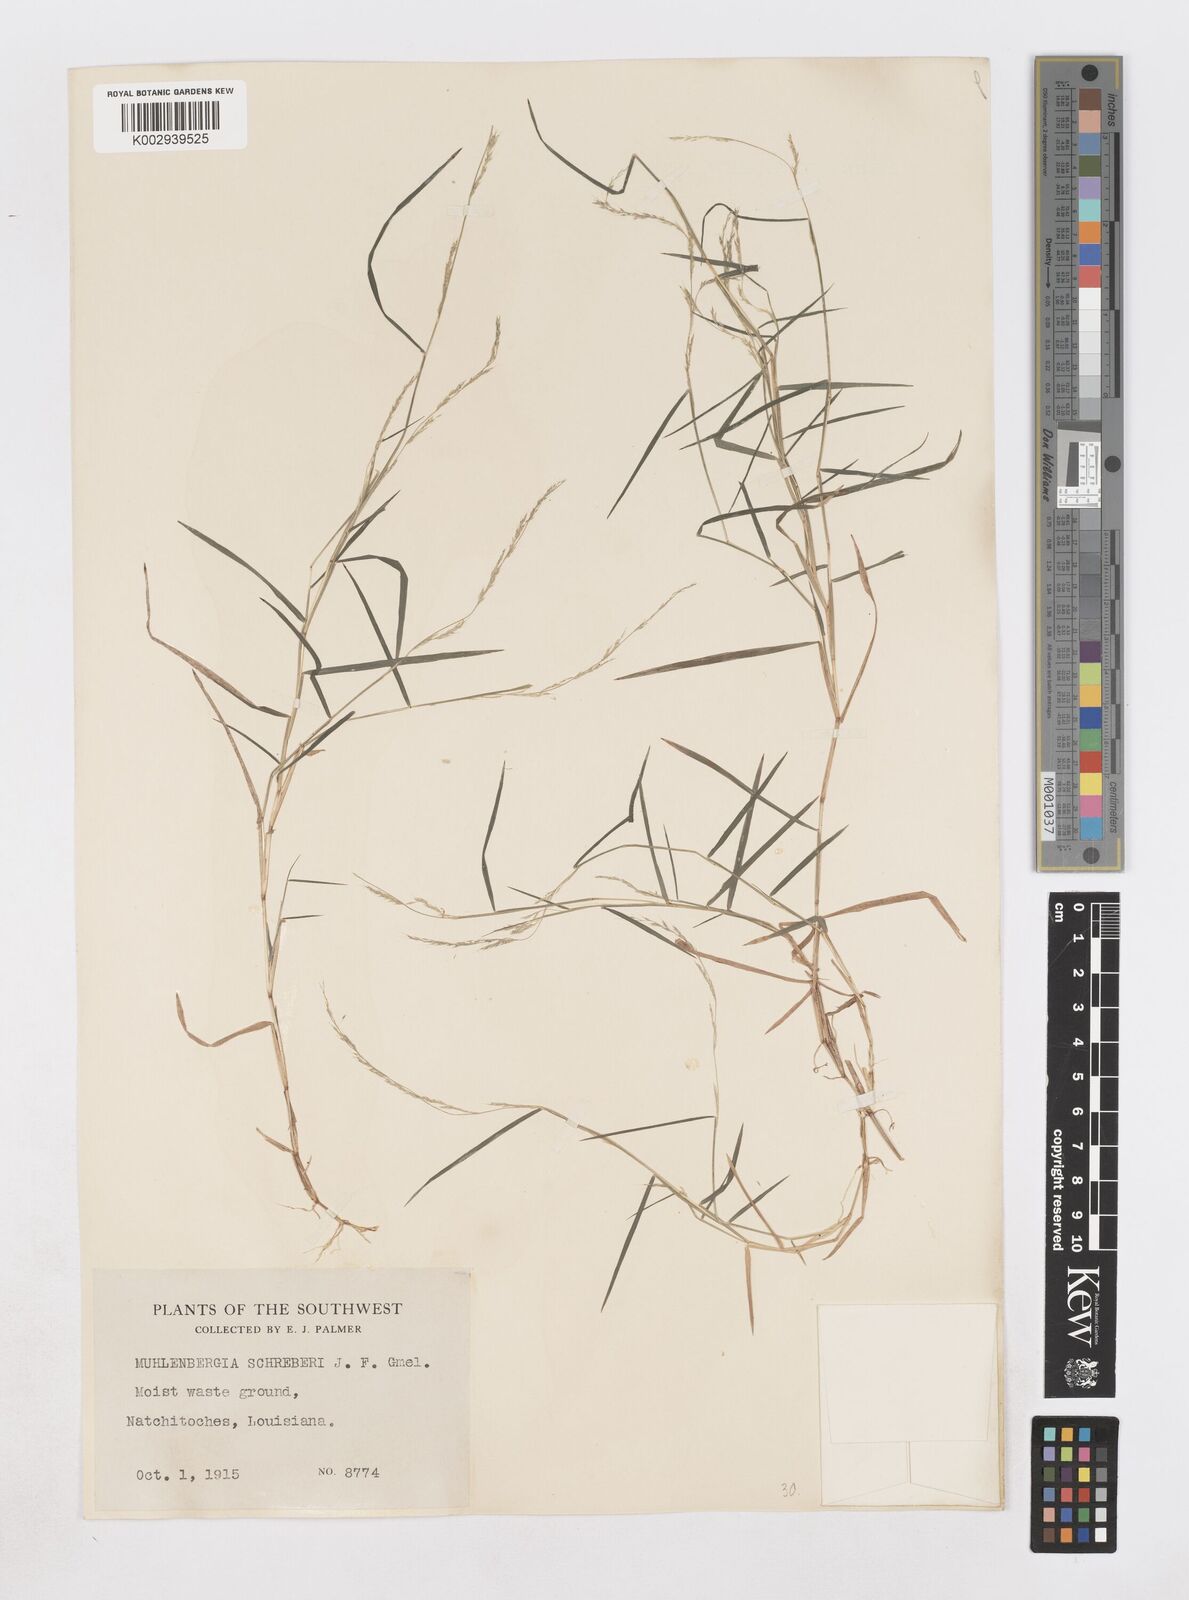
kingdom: Plantae
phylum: Tracheophyta
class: Liliopsida
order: Poales
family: Poaceae
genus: Muhlenbergia
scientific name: Muhlenbergia schreberi
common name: Nimblewill
